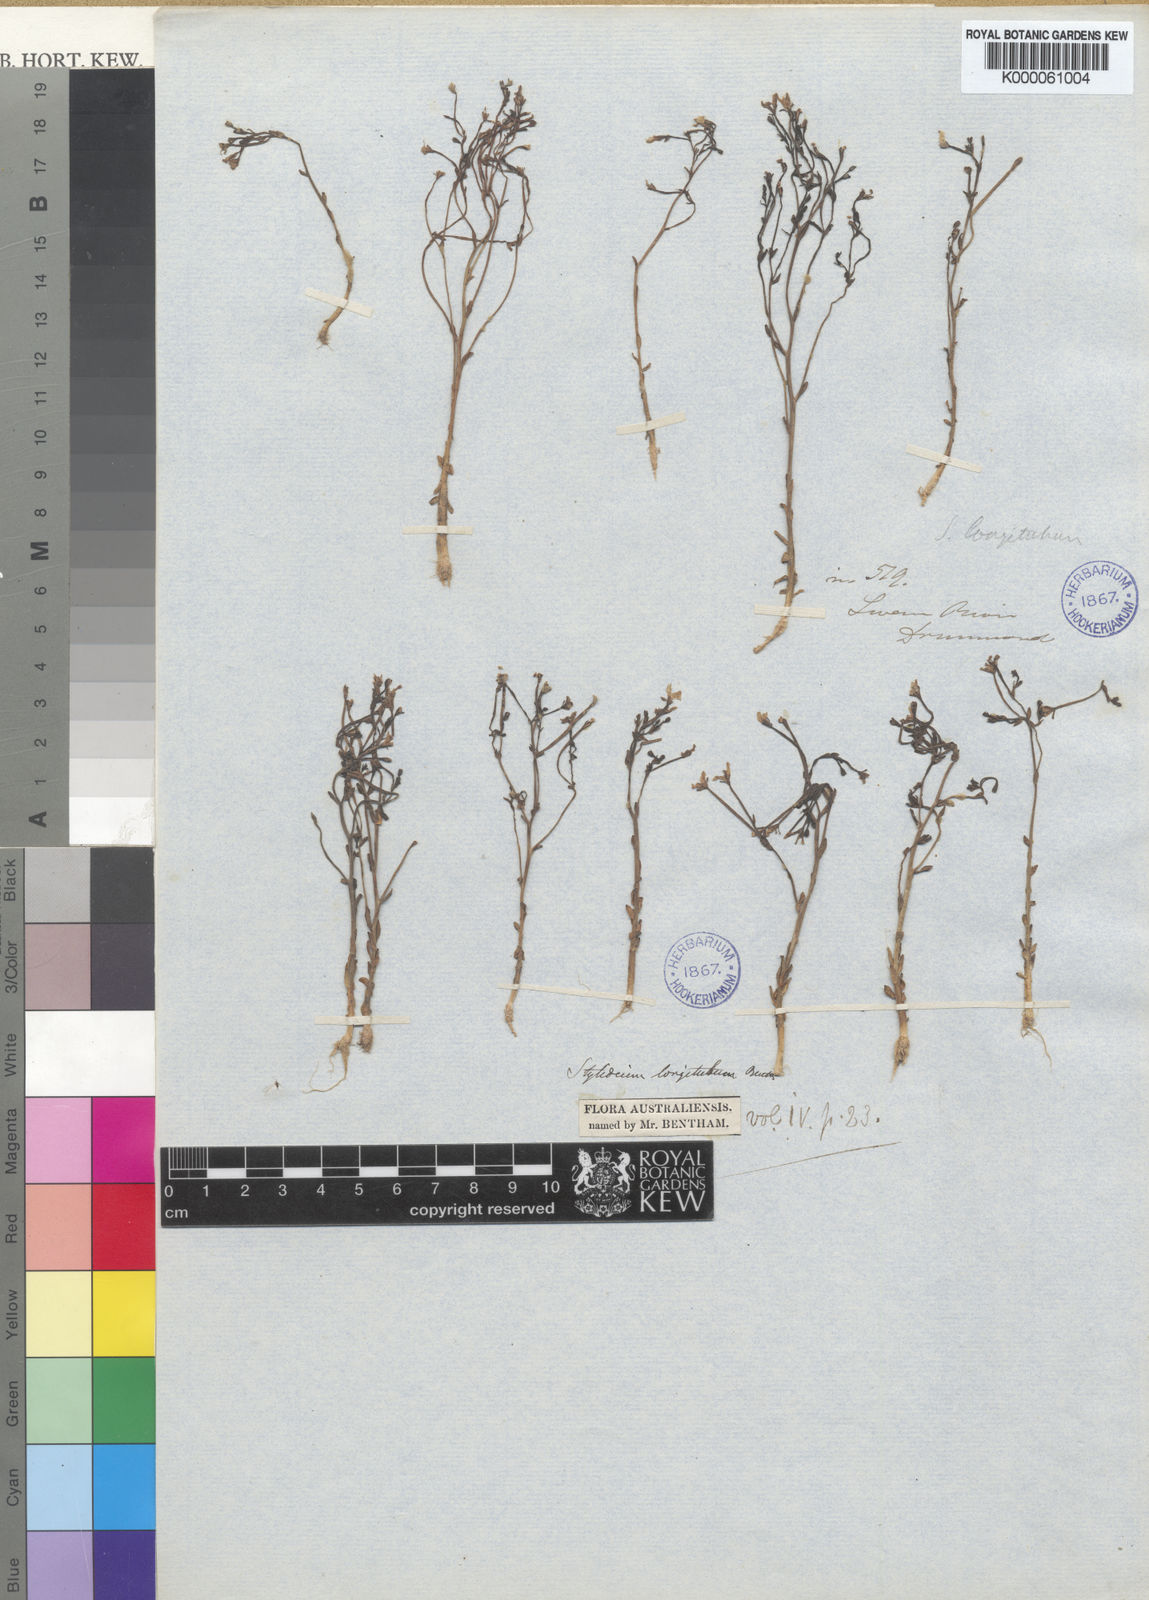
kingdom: Plantae
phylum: Tracheophyta
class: Magnoliopsida
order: Asterales
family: Stylidiaceae
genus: Stylidium
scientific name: Stylidium longitubum
